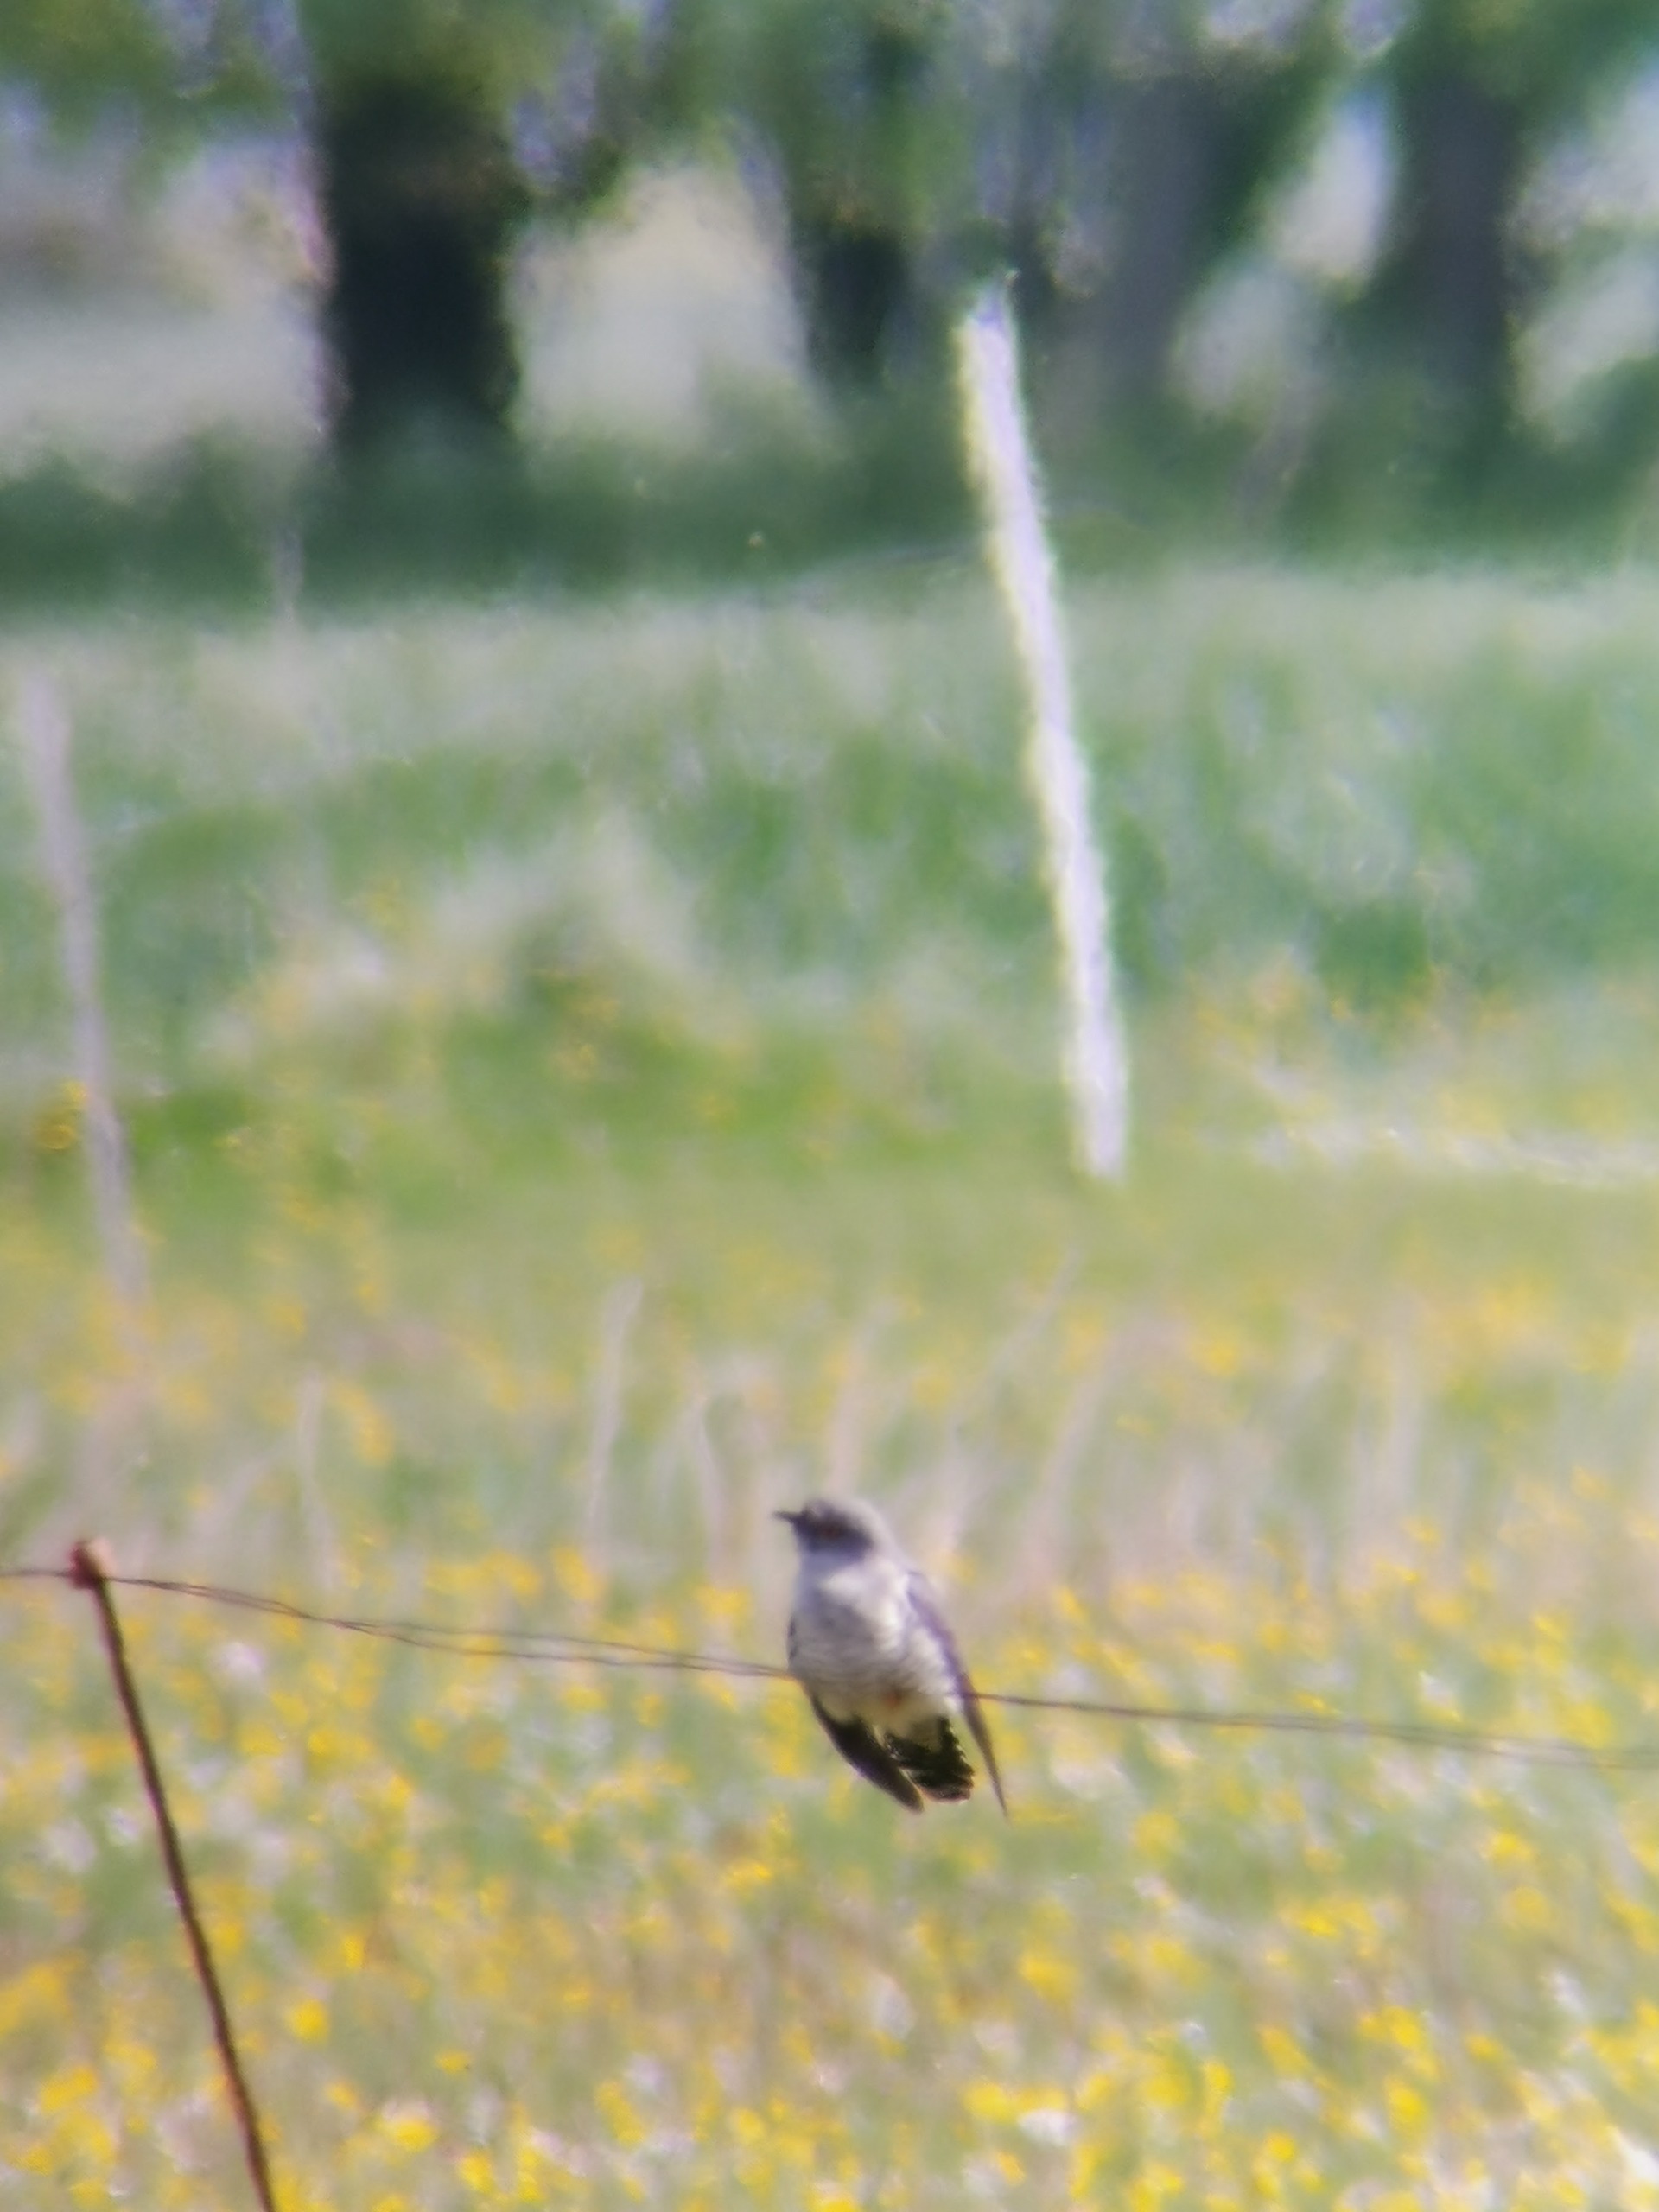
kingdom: Animalia
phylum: Chordata
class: Aves
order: Cuculiformes
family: Cuculidae
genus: Cuculus
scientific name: Cuculus canorus
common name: Gøg
